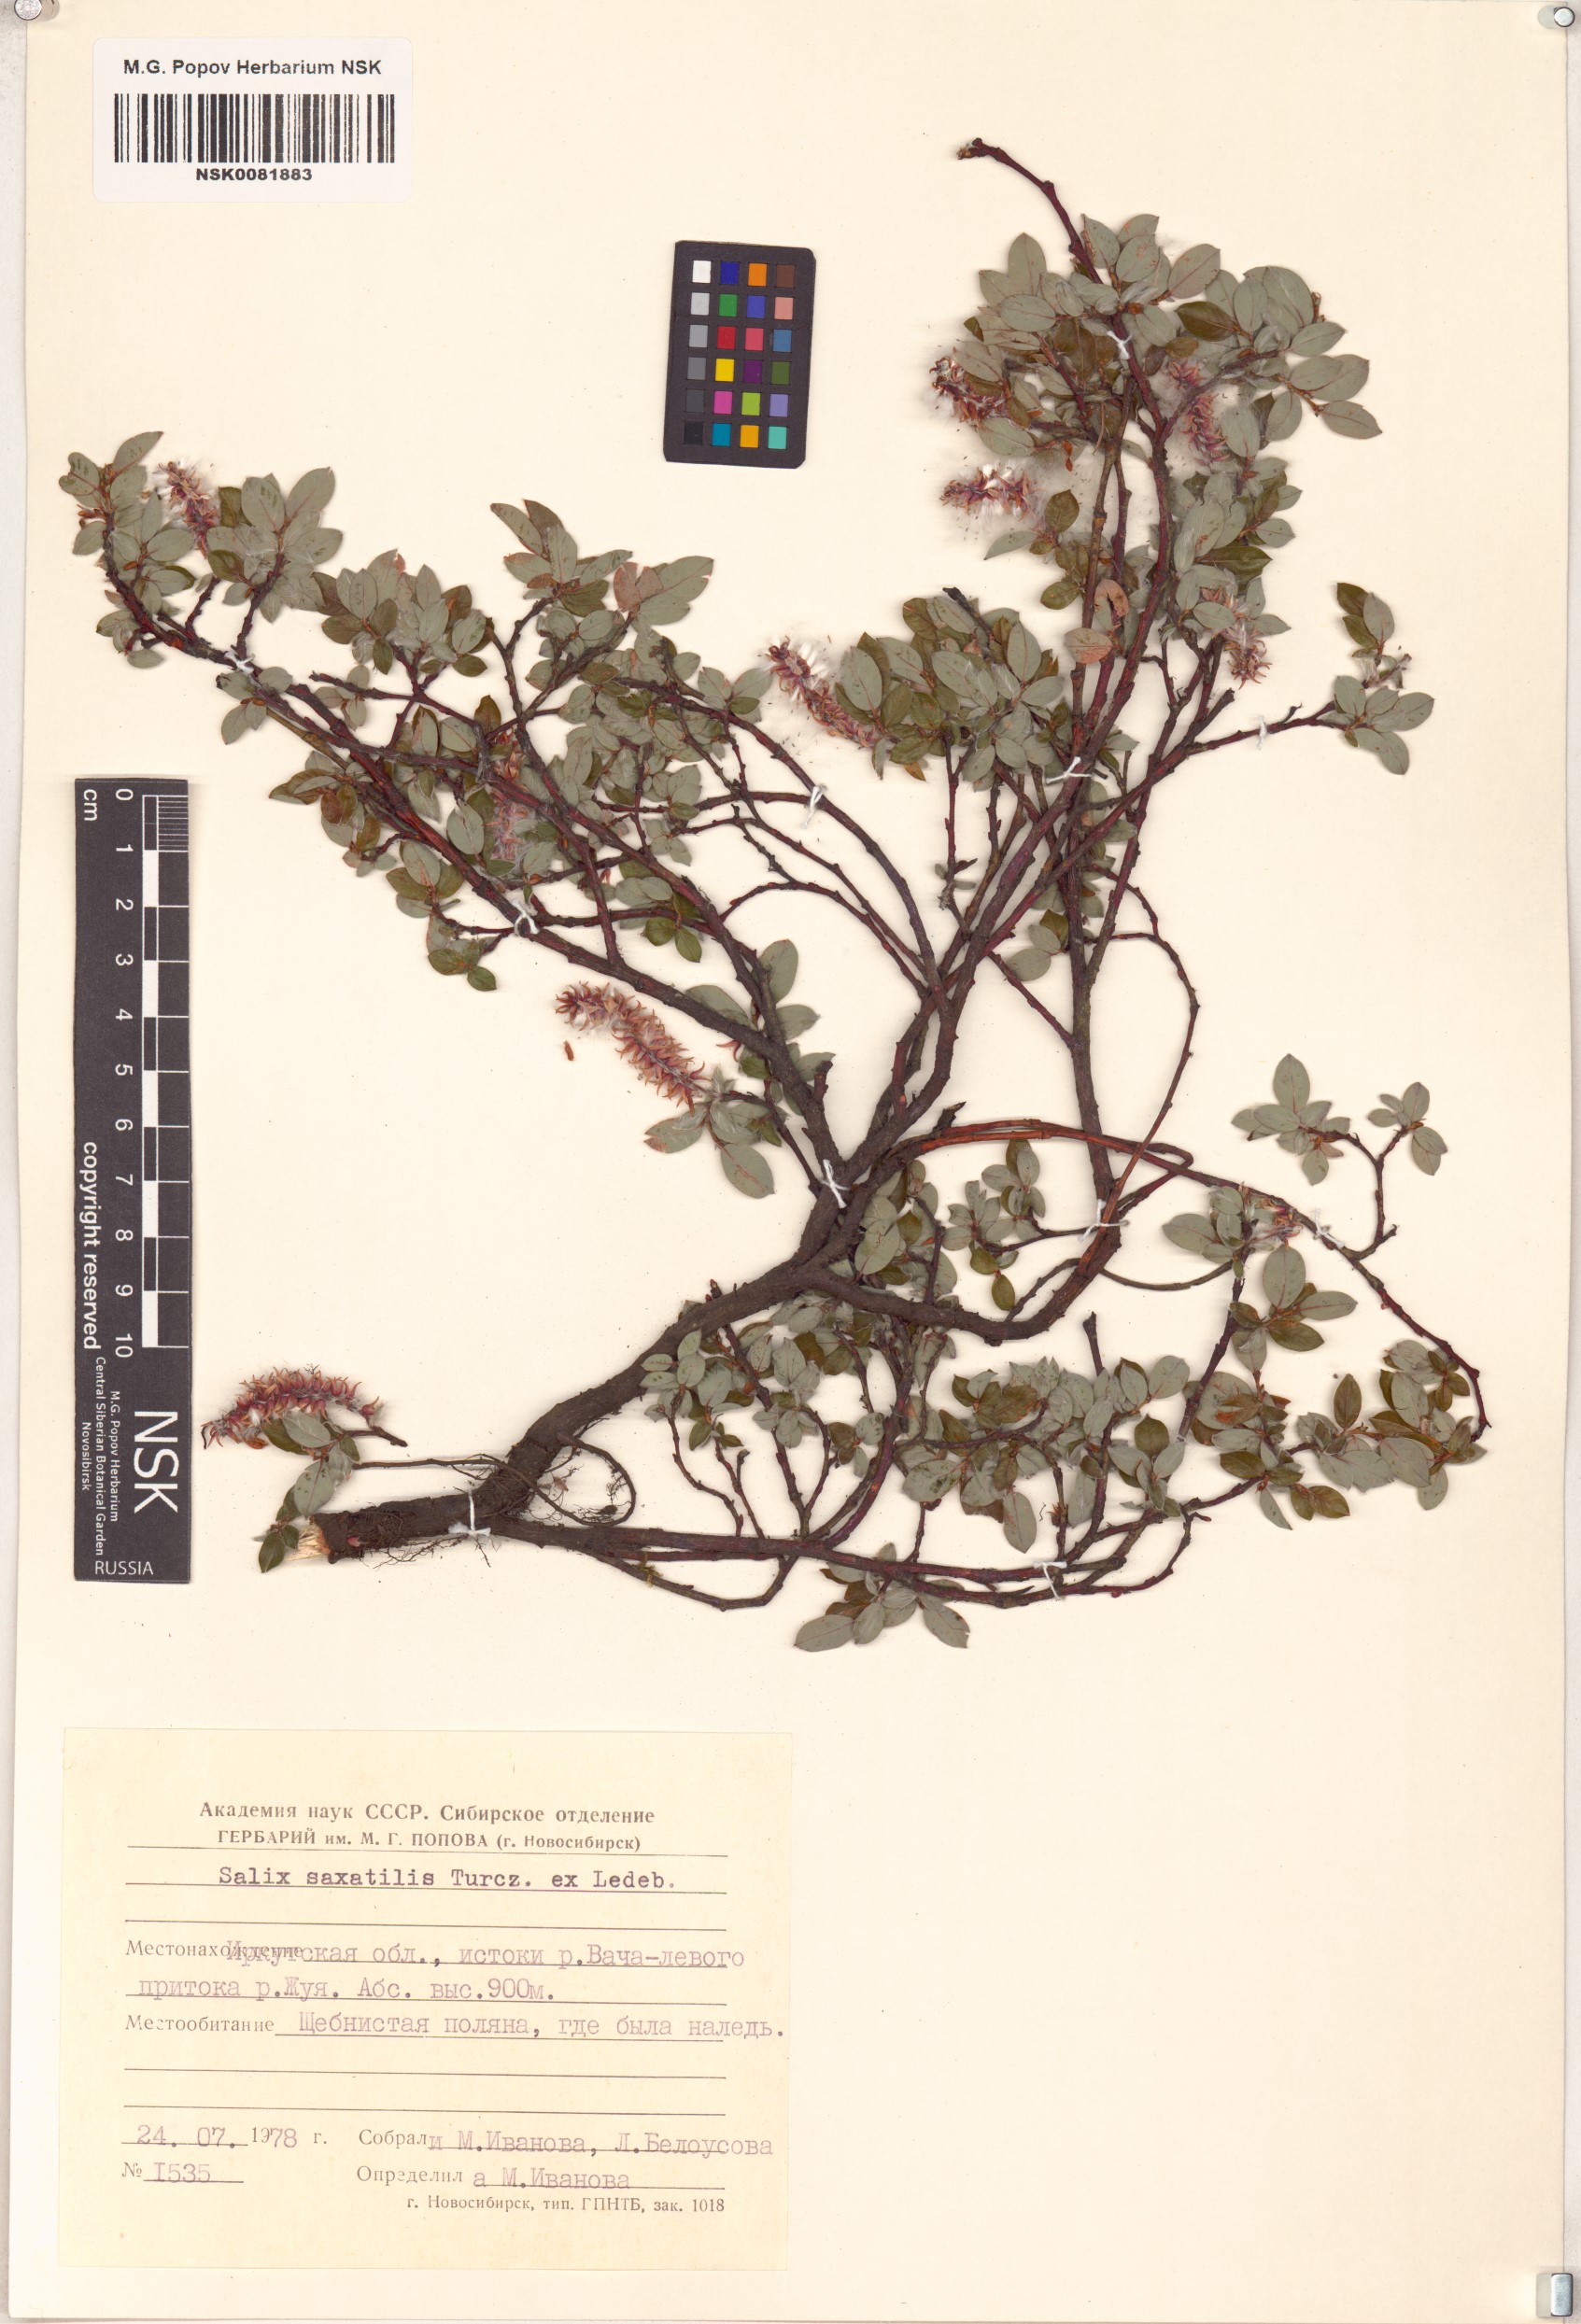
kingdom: Plantae
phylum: Tracheophyta
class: Magnoliopsida
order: Malpighiales
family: Salicaceae
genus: Salix
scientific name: Salix saxatilis
